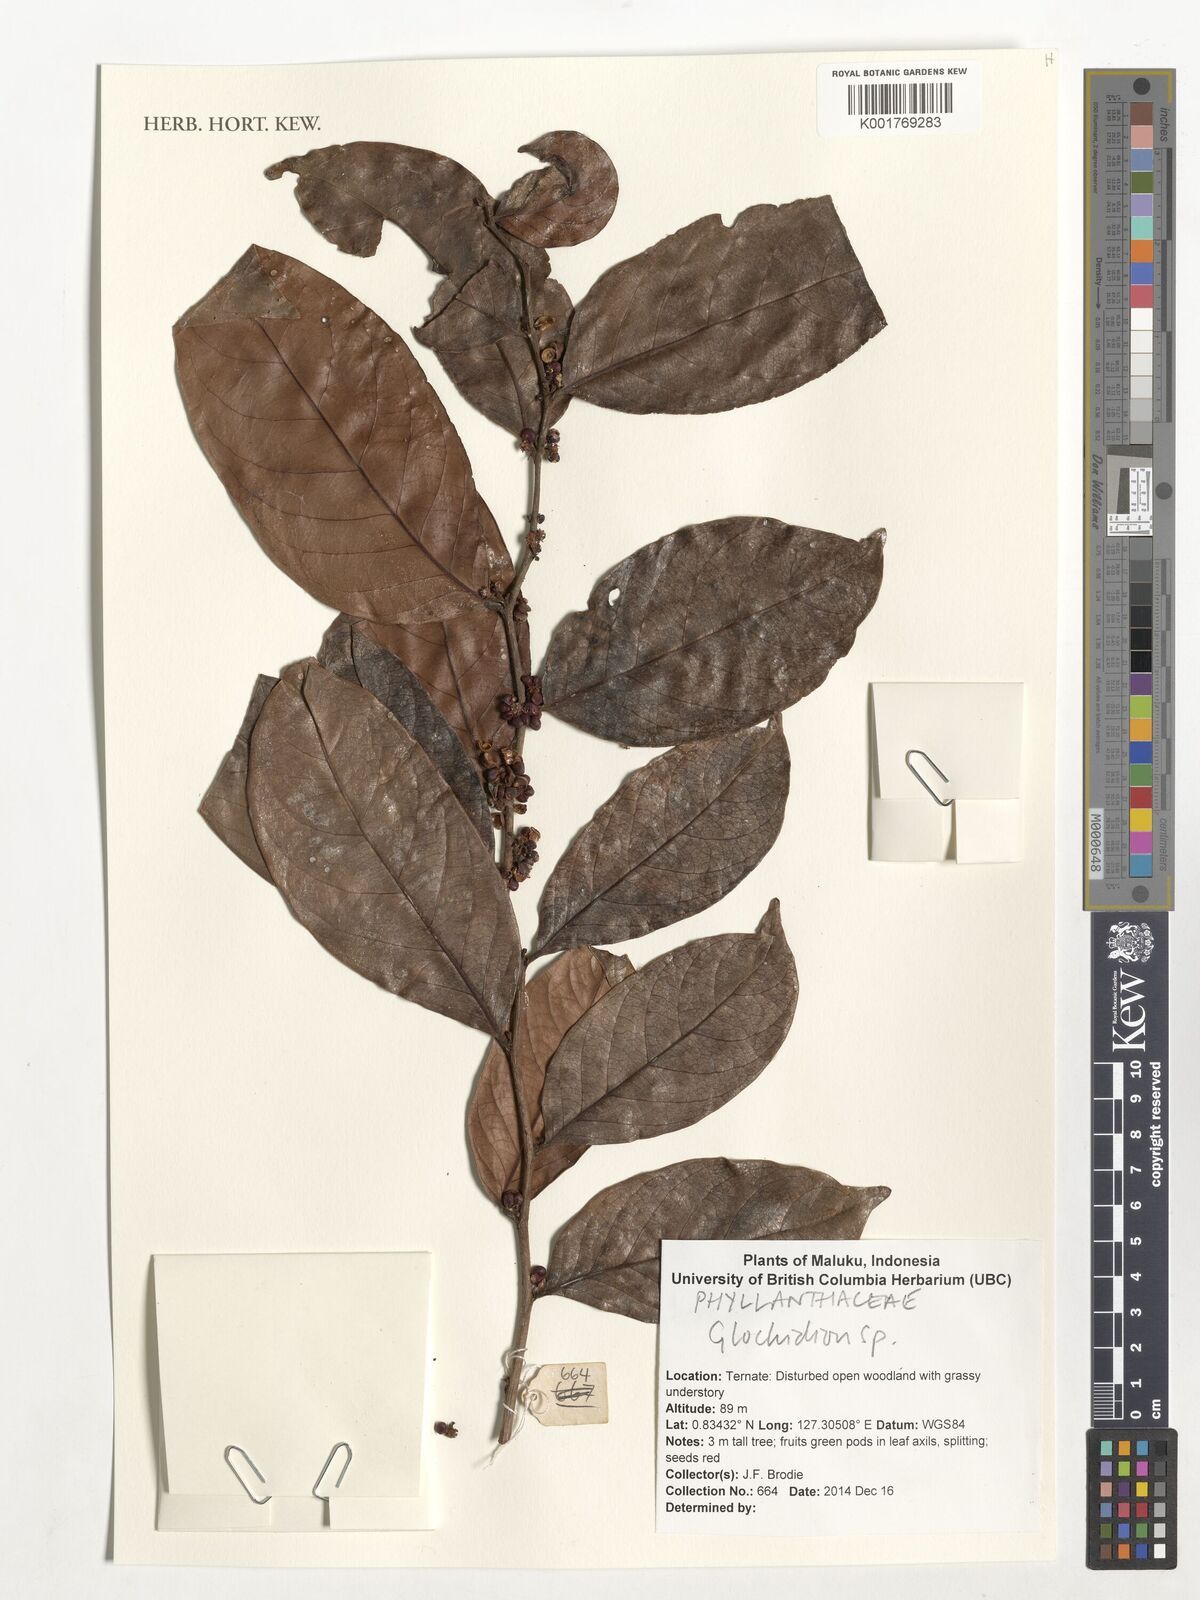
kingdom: Plantae
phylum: Tracheophyta
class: Magnoliopsida
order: Malpighiales
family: Phyllanthaceae
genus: Glochidion
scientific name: Glochidion
